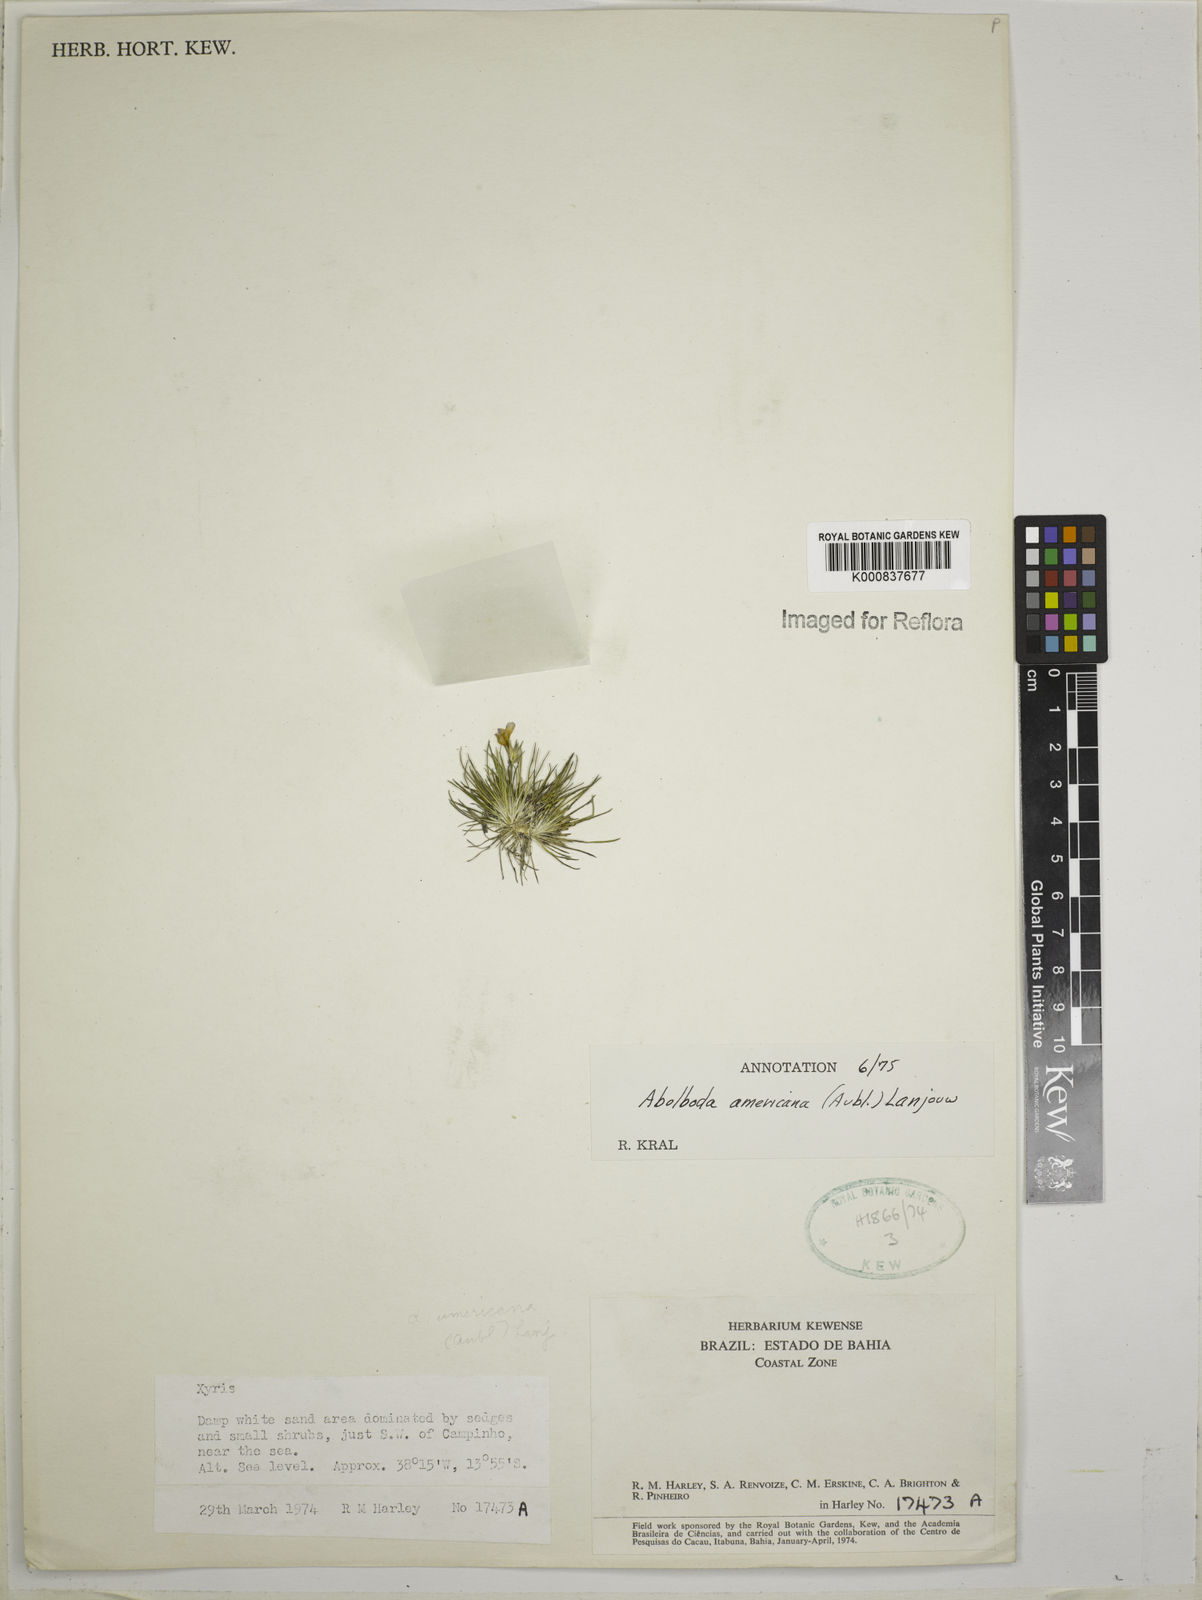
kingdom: Plantae
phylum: Tracheophyta
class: Liliopsida
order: Poales
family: Xyridaceae
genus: Abolboda
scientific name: Abolboda americana
